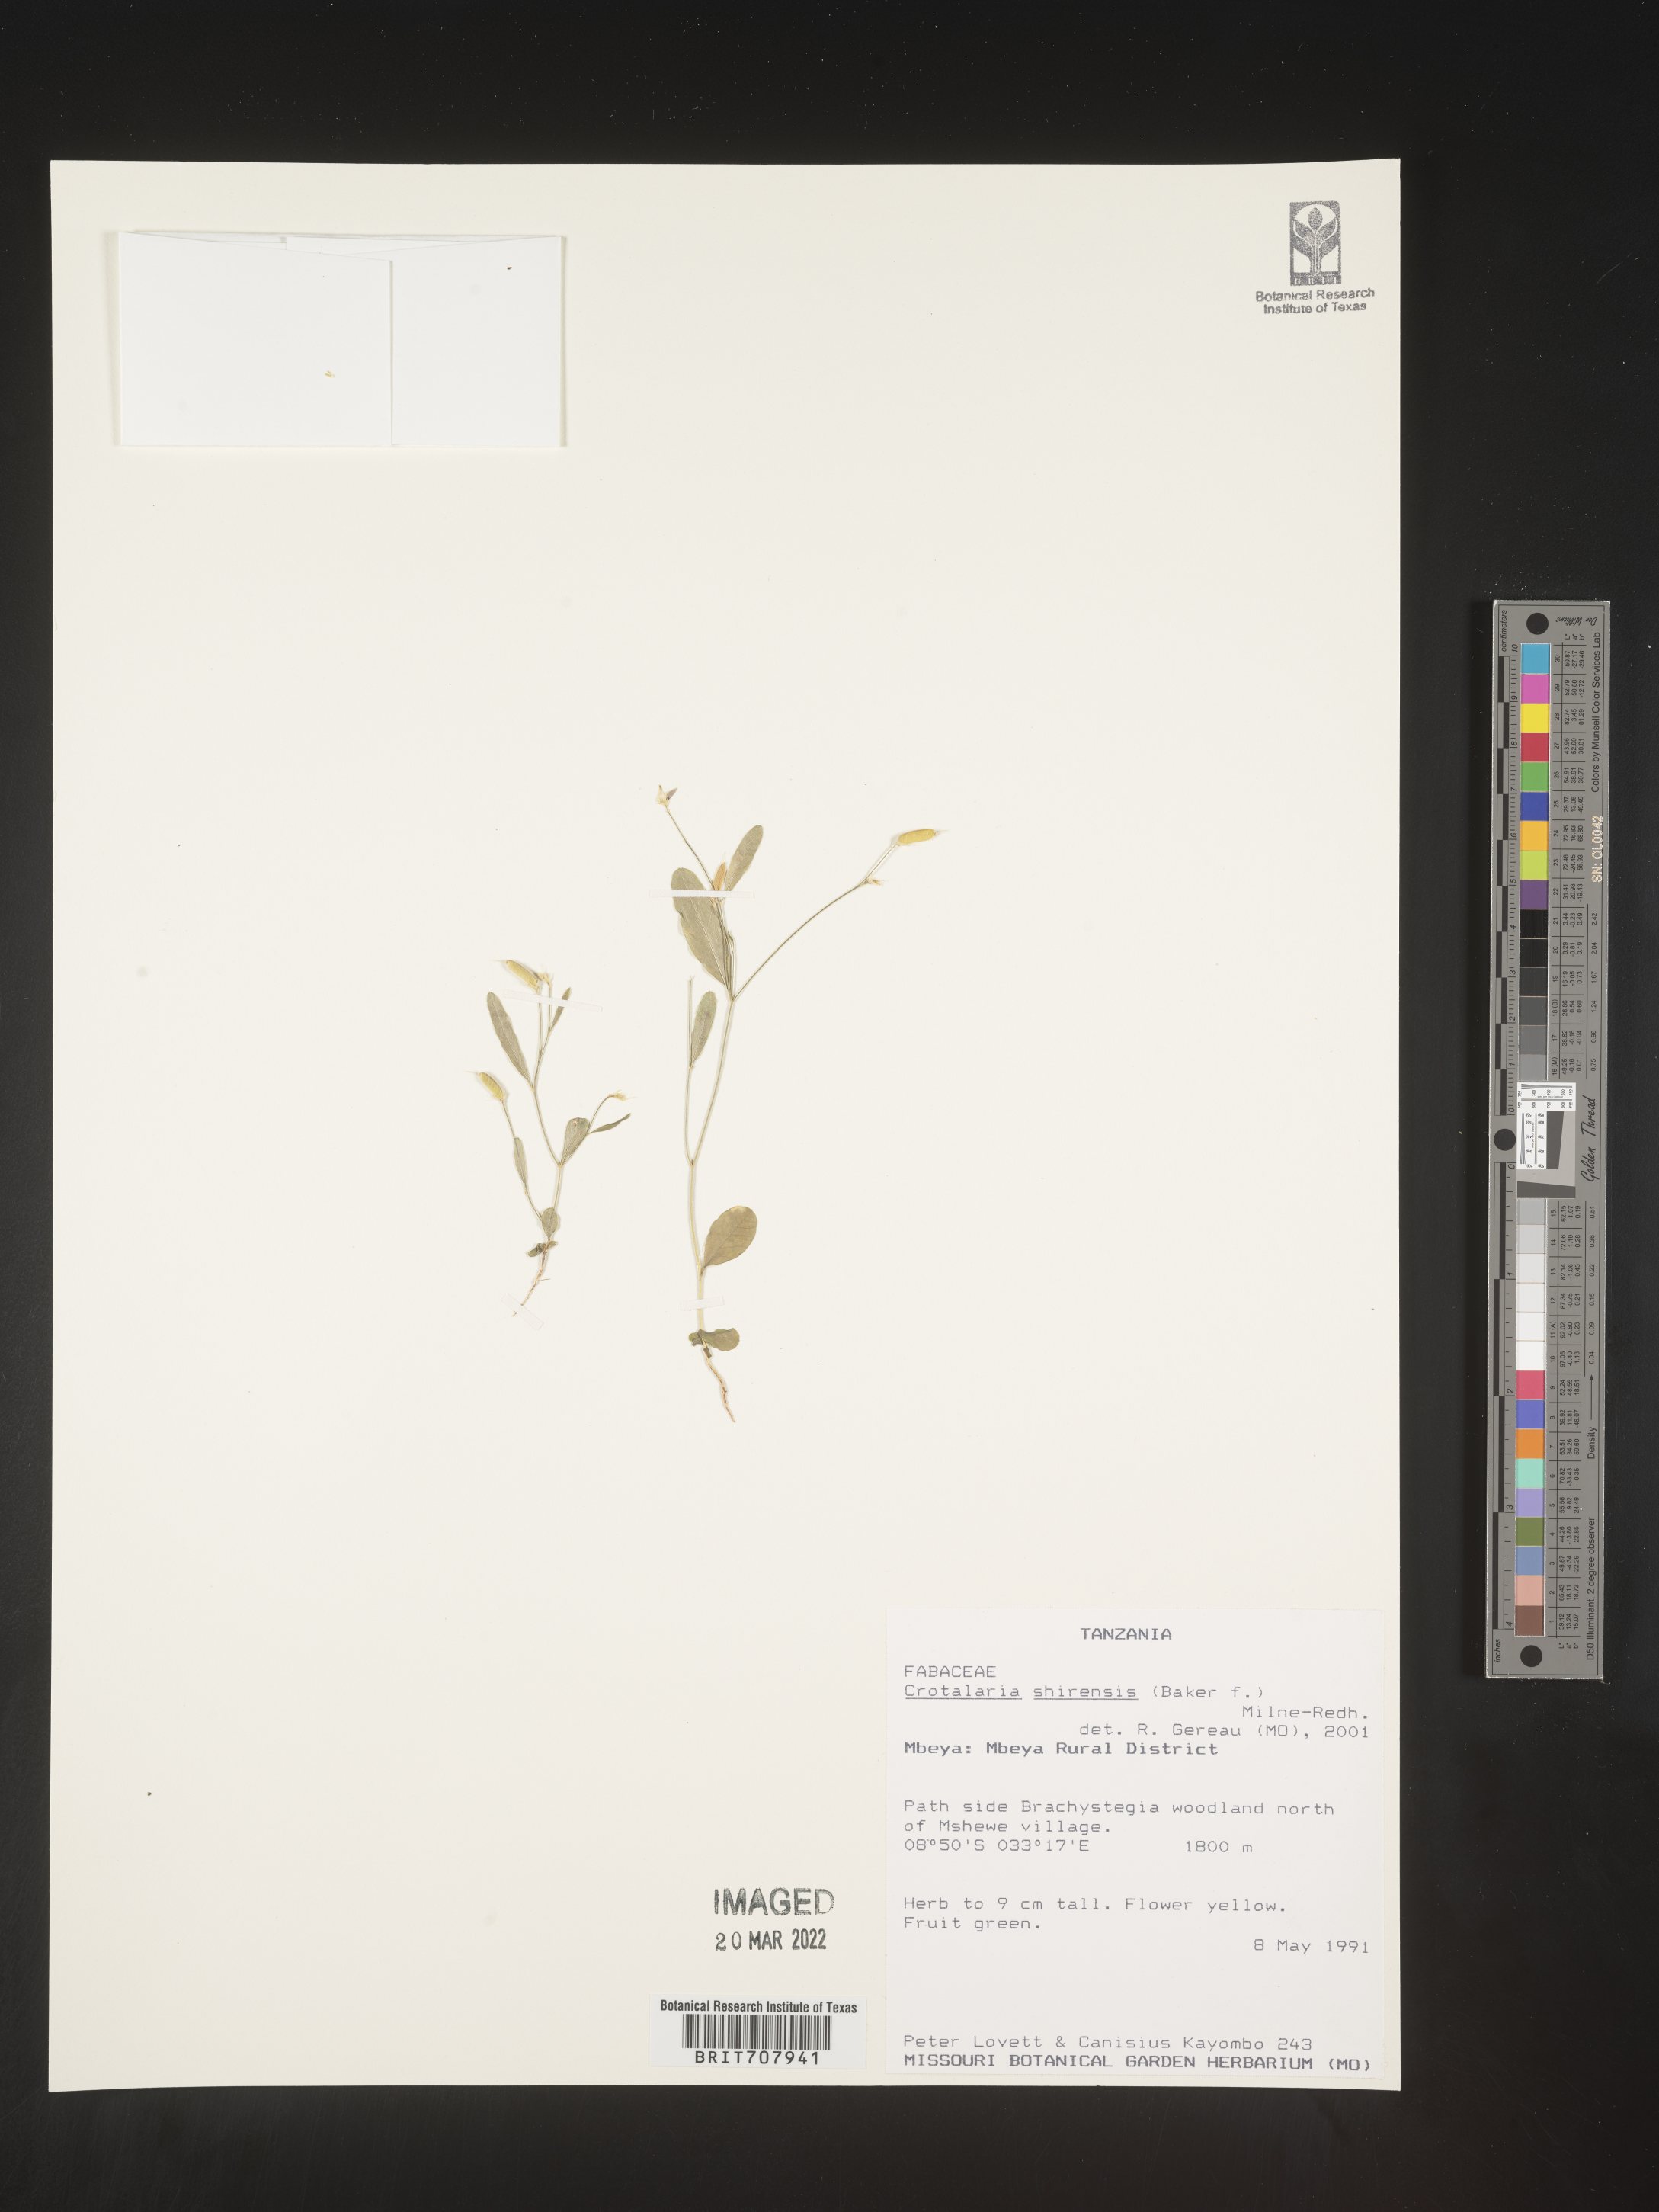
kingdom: Plantae
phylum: Tracheophyta
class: Magnoliopsida
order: Fabales
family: Fabaceae
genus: Crotalaria
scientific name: Crotalaria
